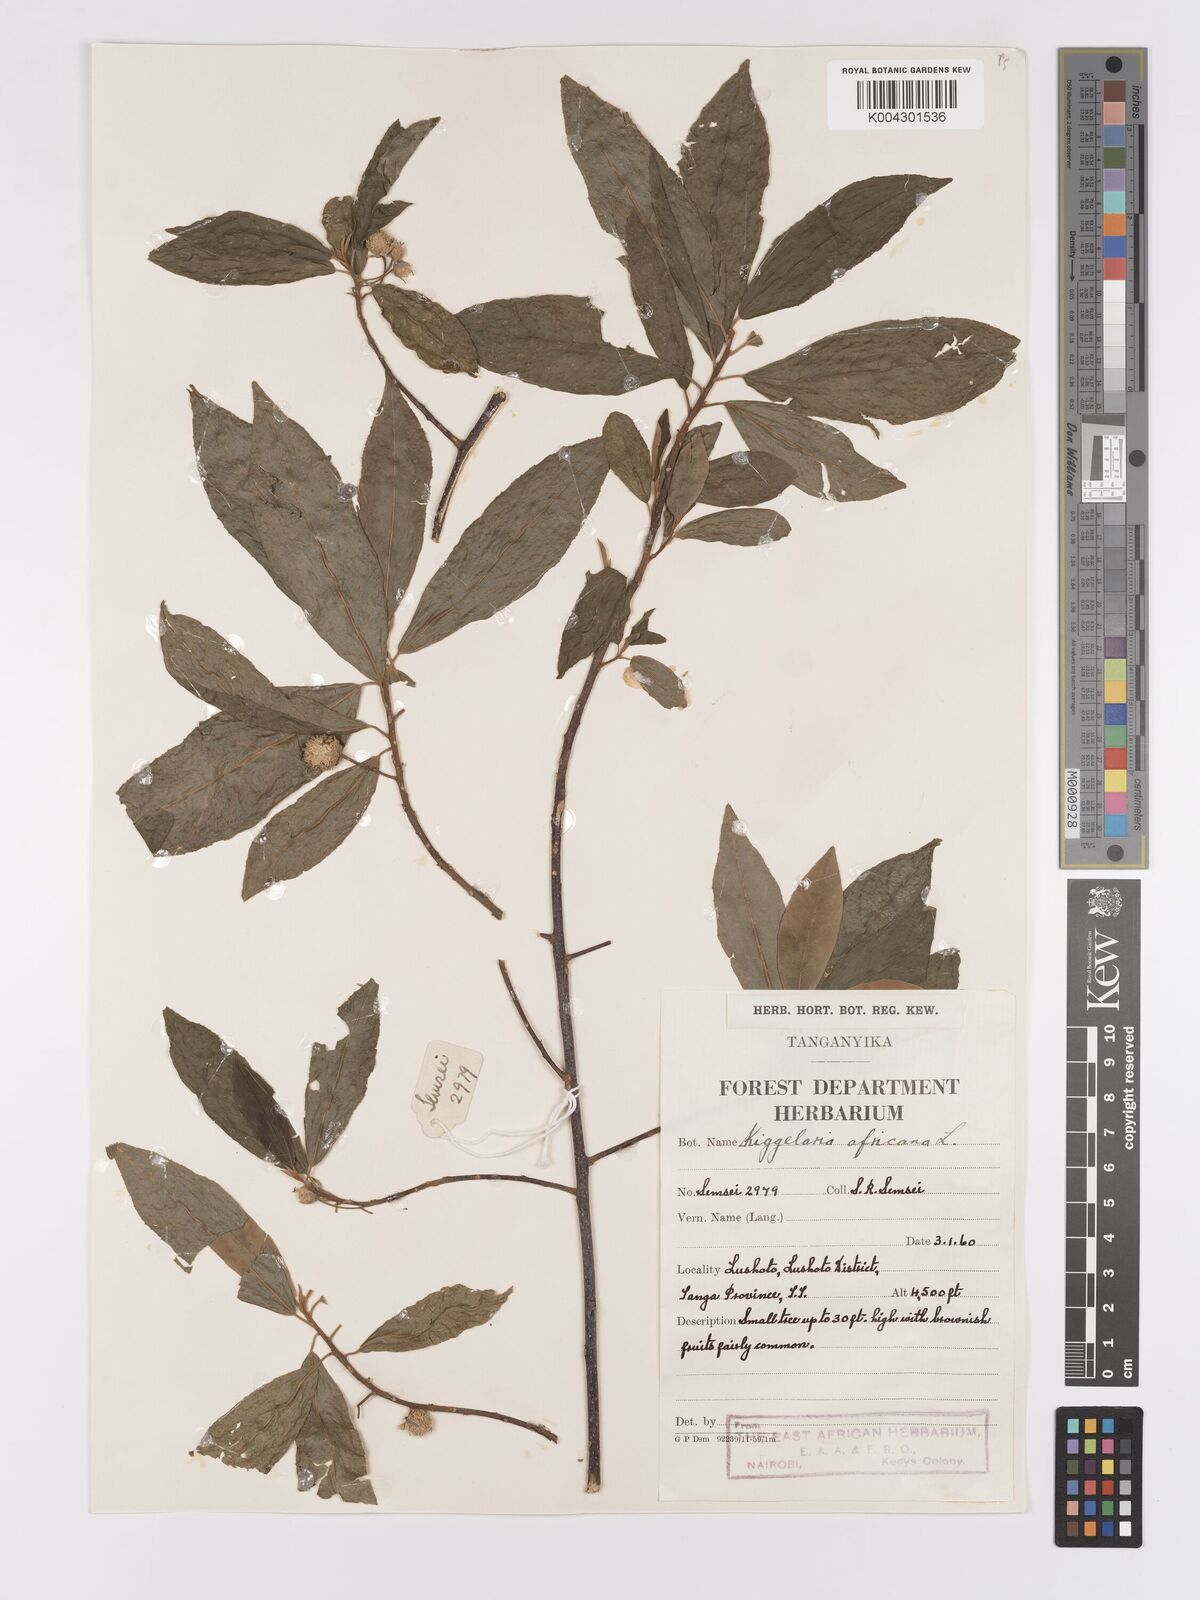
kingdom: Plantae
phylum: Tracheophyta
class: Magnoliopsida
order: Malpighiales
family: Achariaceae
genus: Kiggelaria
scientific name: Kiggelaria africana
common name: Wild peach
